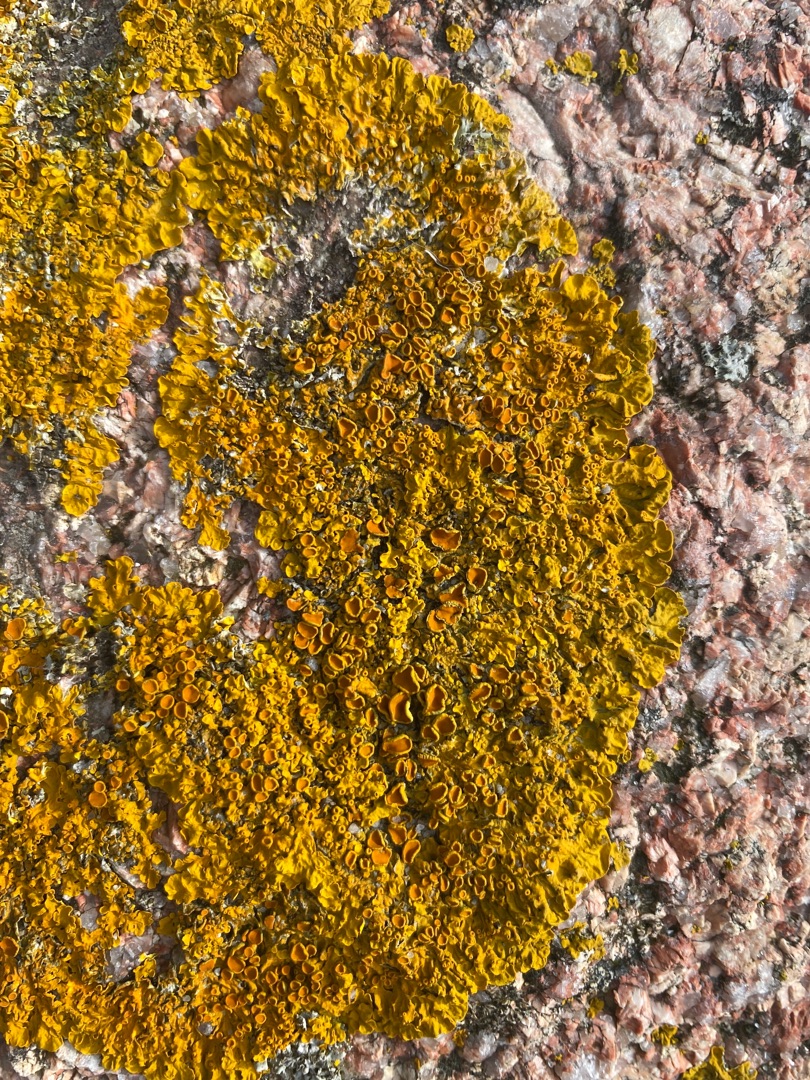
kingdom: Fungi
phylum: Ascomycota
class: Lecanoromycetes
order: Teloschistales
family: Teloschistaceae
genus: Xanthoria
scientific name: Xanthoria parietina
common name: Almindelig væggelav
